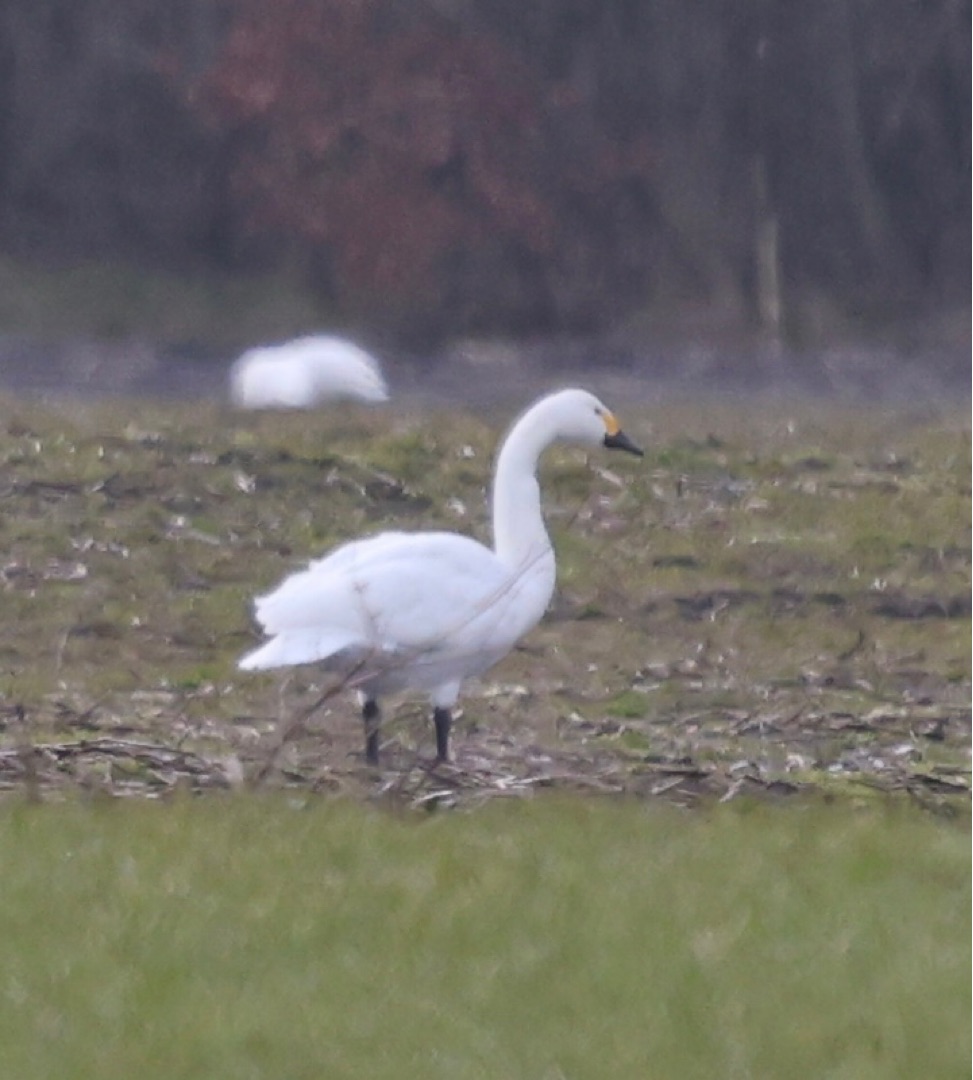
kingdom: Animalia
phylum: Chordata
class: Aves
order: Anseriformes
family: Anatidae
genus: Cygnus
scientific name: Cygnus columbianus
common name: Pibesvane
